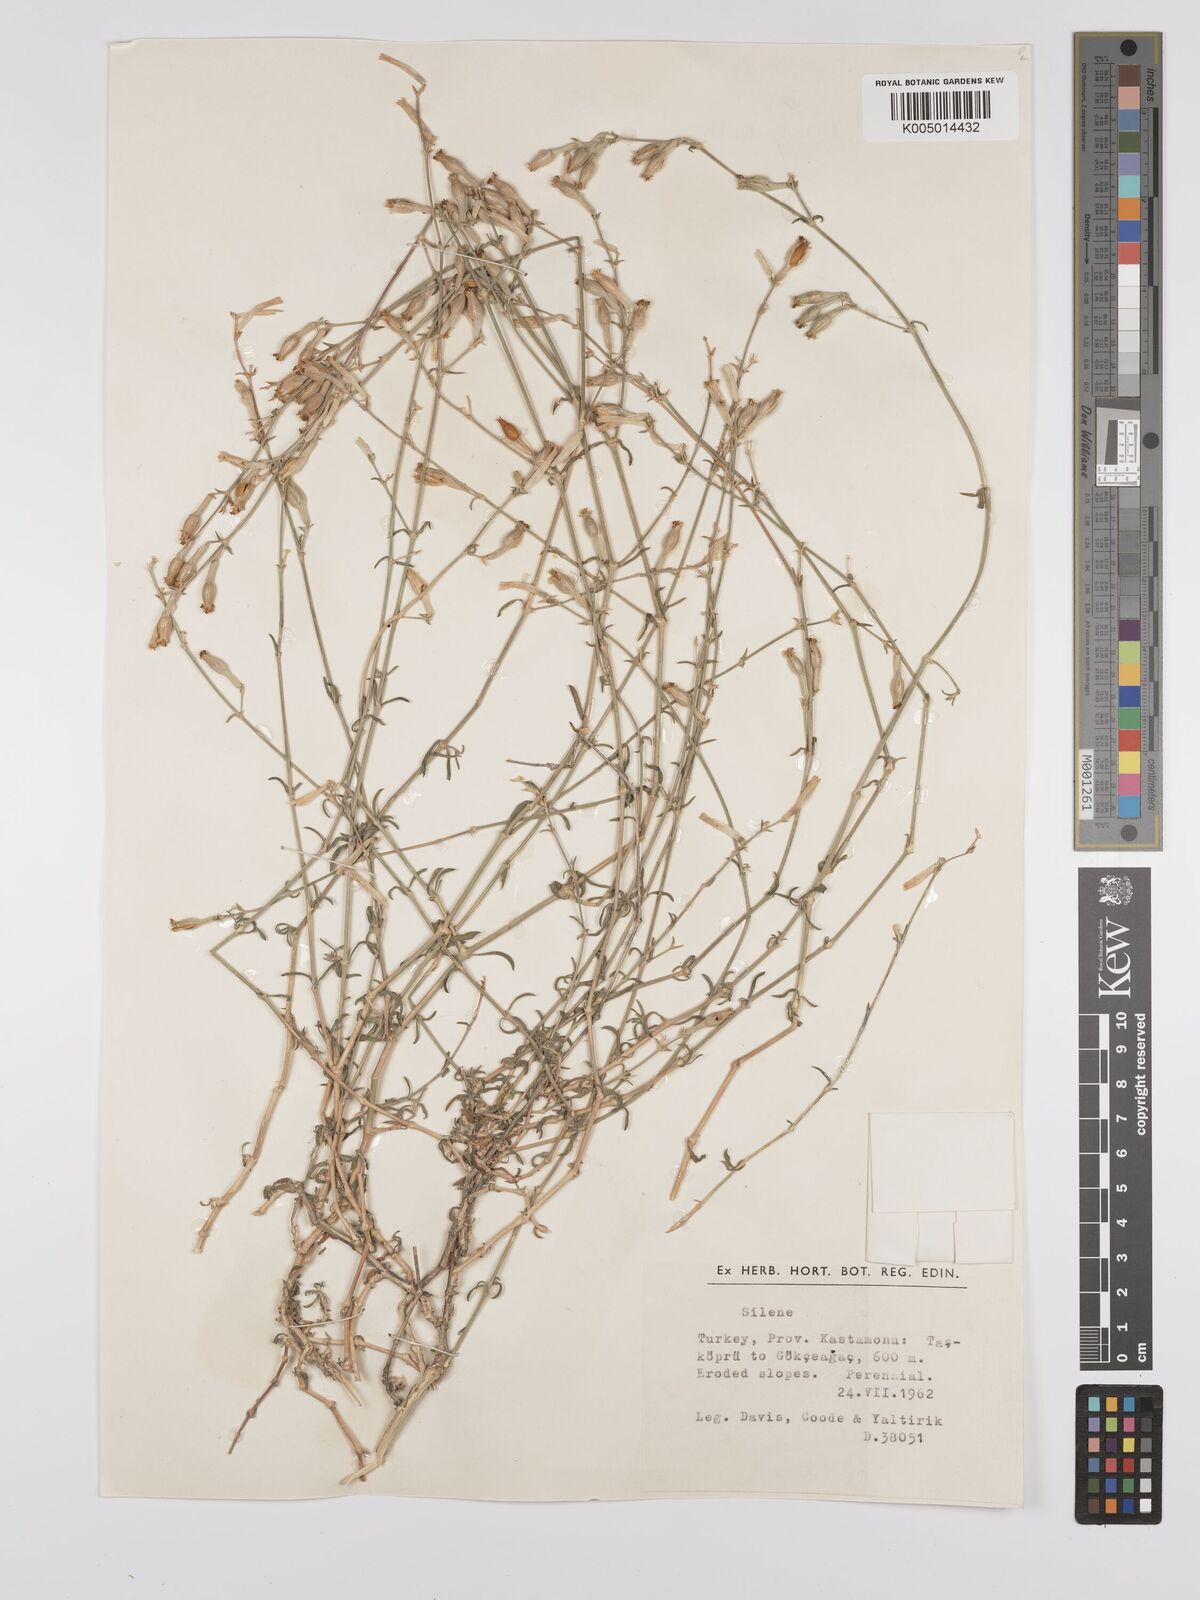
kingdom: Plantae
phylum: Tracheophyta
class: Magnoliopsida
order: Caryophyllales
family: Caryophyllaceae
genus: Silene
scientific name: Silene
